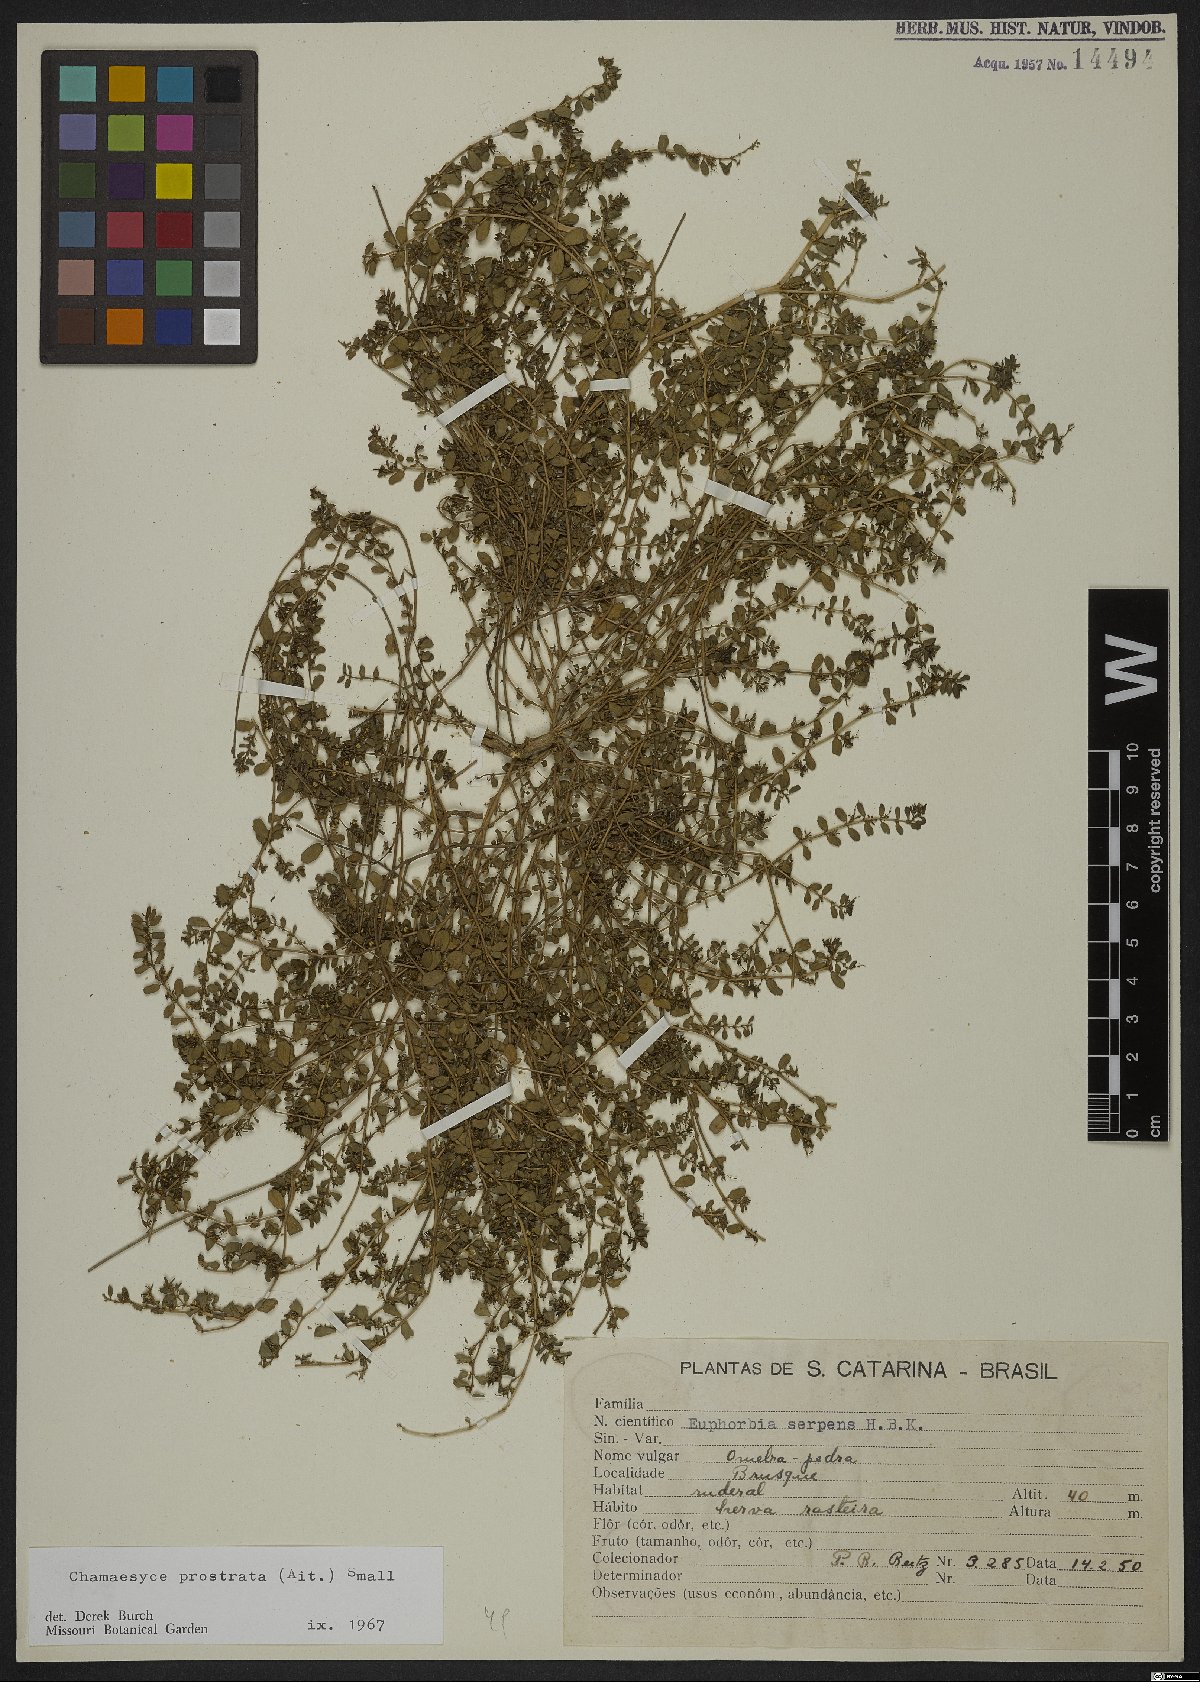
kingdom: Plantae
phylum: Tracheophyta
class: Magnoliopsida
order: Malpighiales
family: Euphorbiaceae
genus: Euphorbia
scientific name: Euphorbia prostrata
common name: Prostrate sandmat
